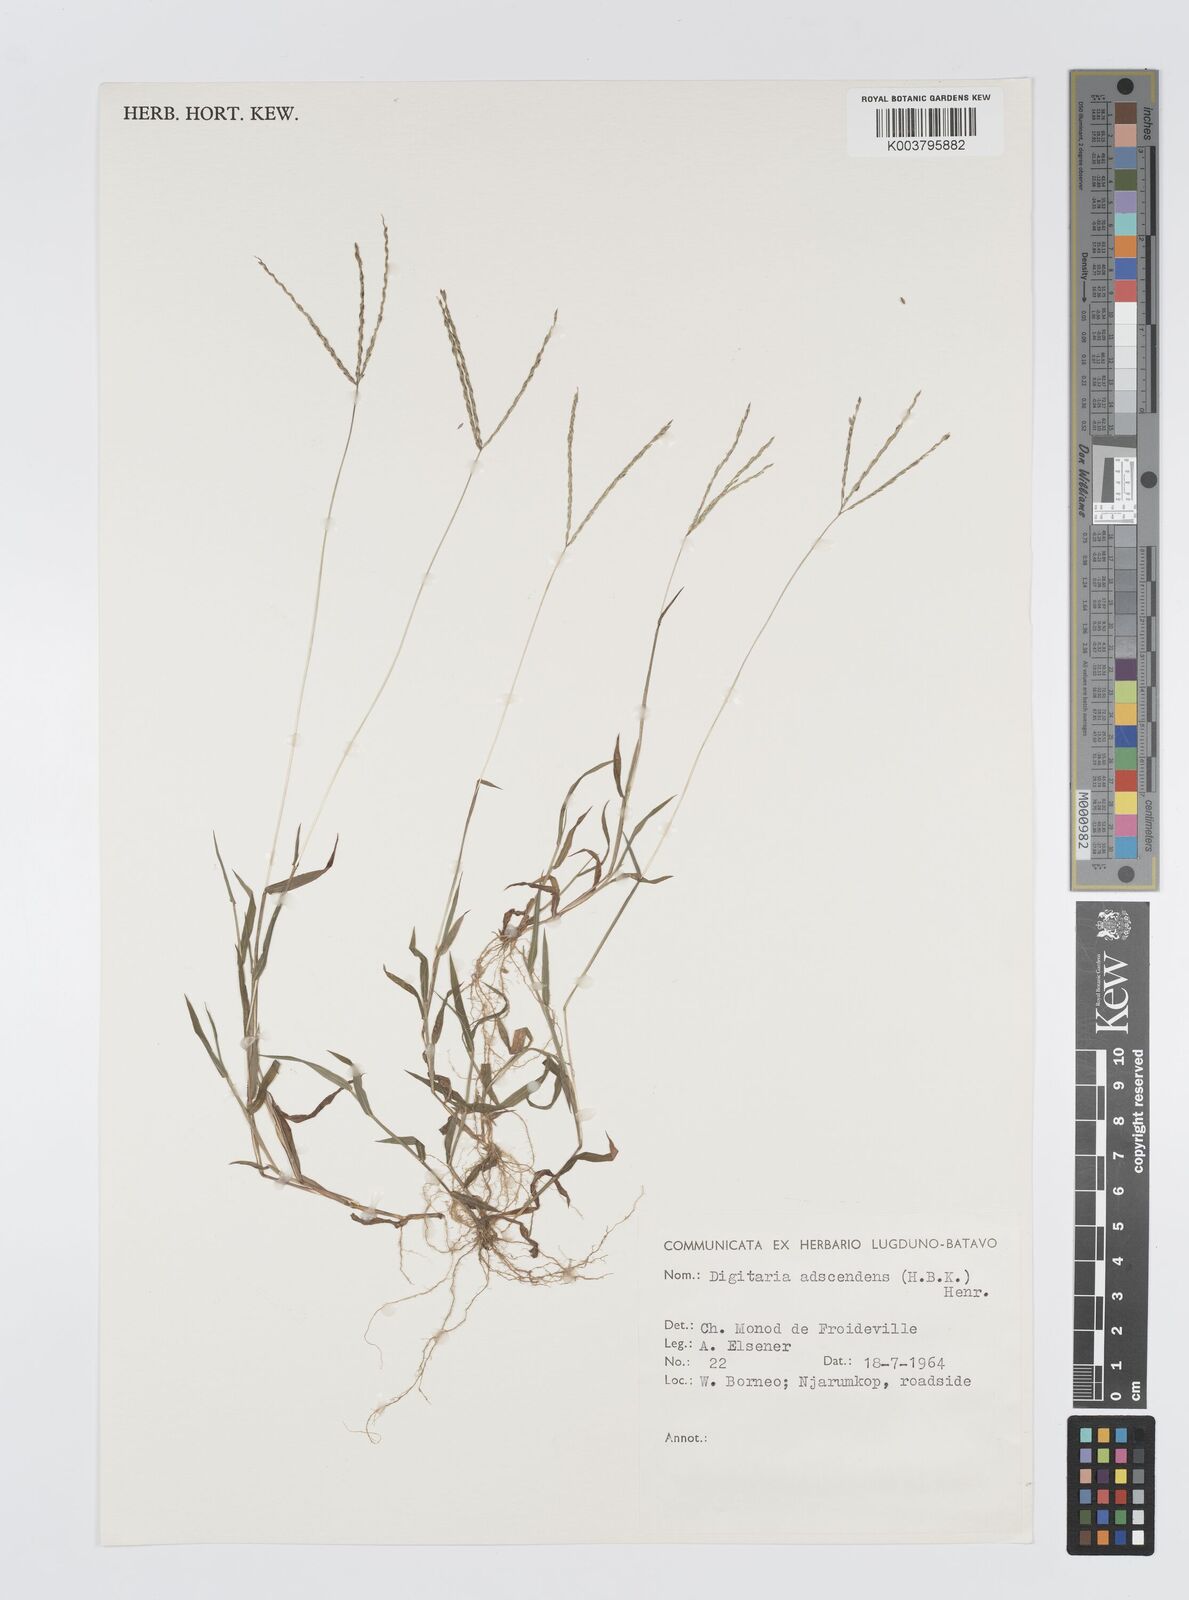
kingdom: Plantae
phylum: Tracheophyta
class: Liliopsida
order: Poales
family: Poaceae
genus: Digitaria
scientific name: Digitaria ciliaris
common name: Tropical finger-grass
